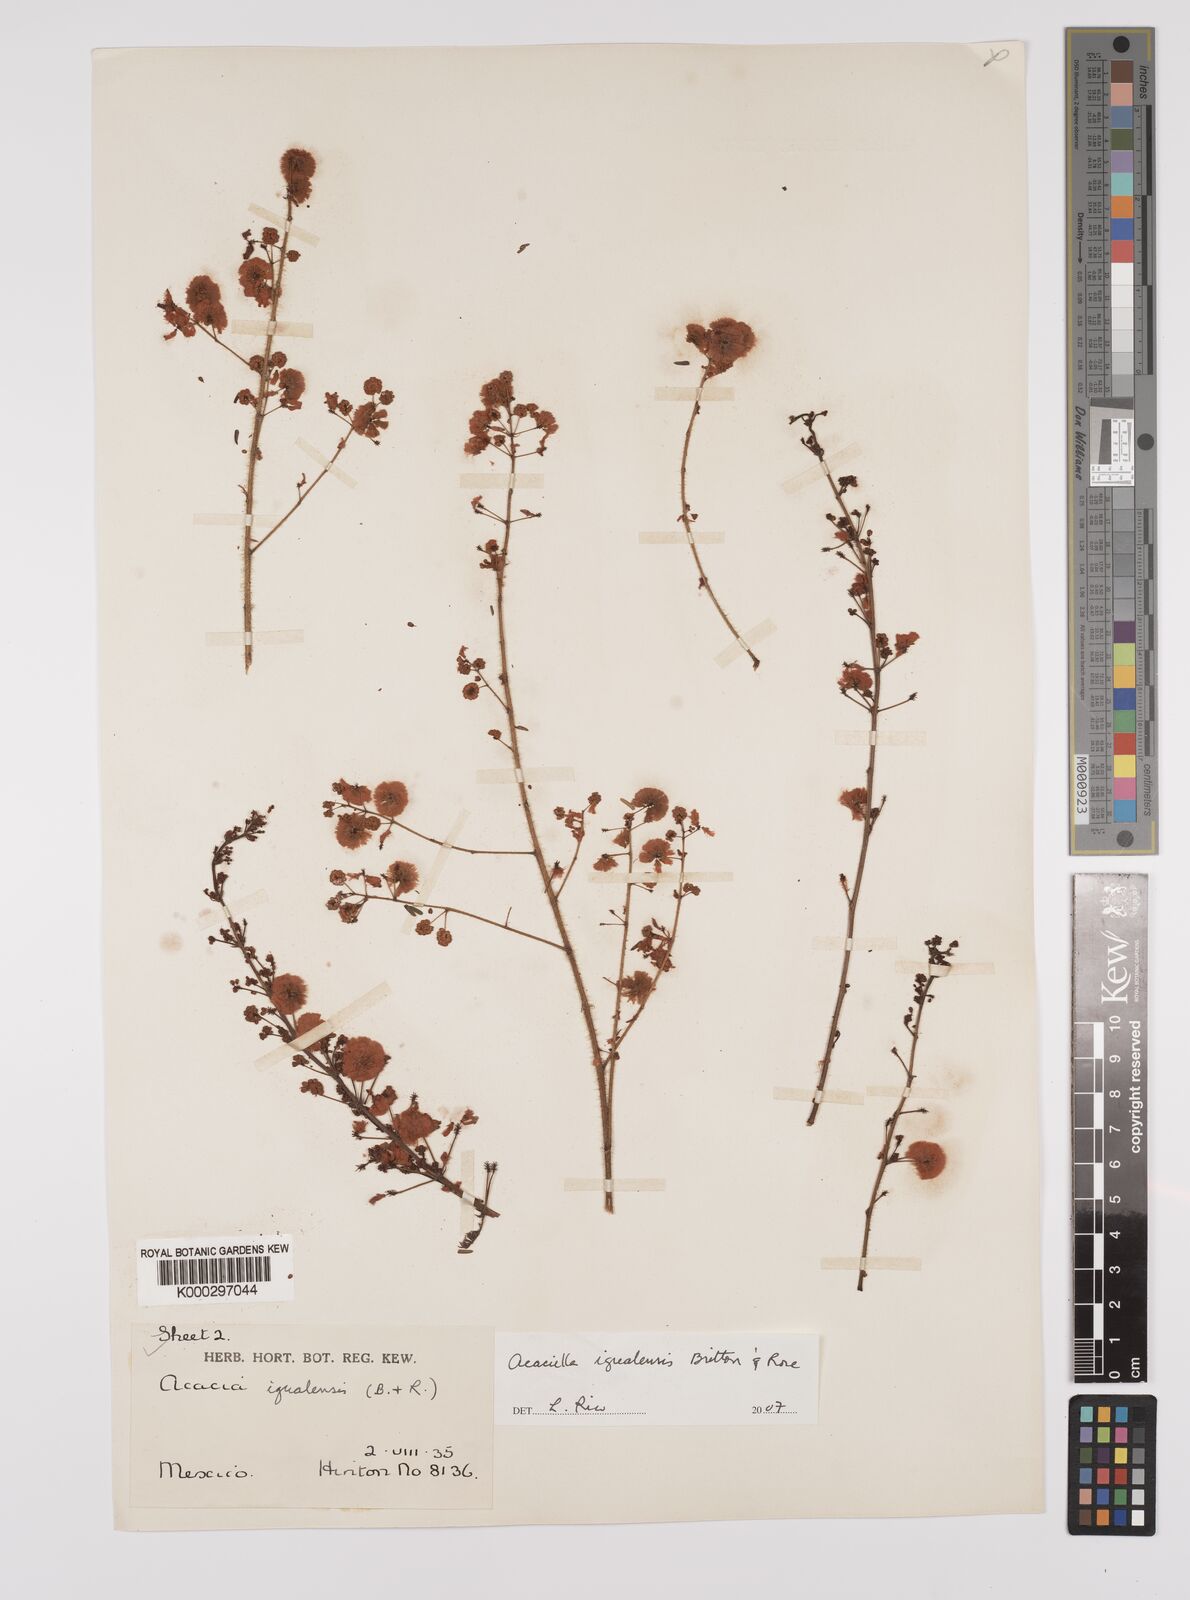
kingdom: Plantae
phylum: Tracheophyta
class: Magnoliopsida
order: Fabales
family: Fabaceae
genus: Acaciella
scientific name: Acaciella igualensis
